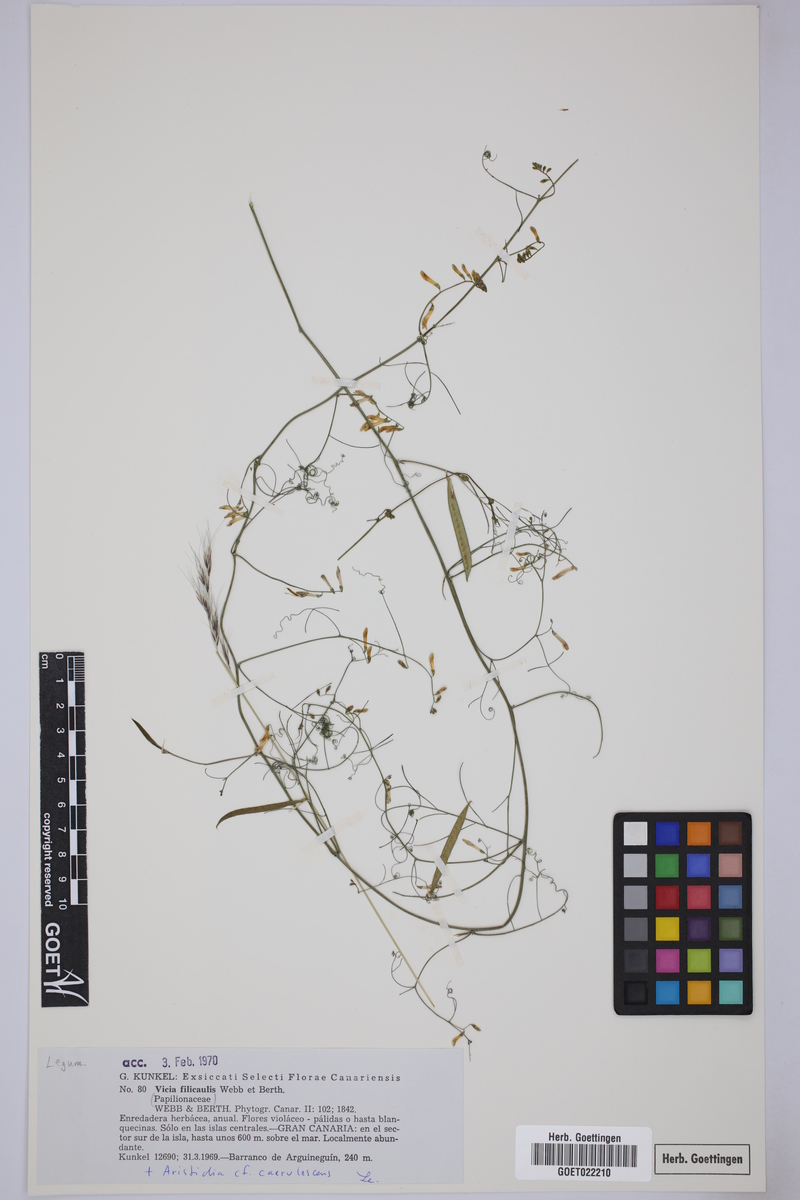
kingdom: Plantae
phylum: Tracheophyta
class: Magnoliopsida
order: Fabales
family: Fabaceae
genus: Vicia
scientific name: Vicia filicaulis
